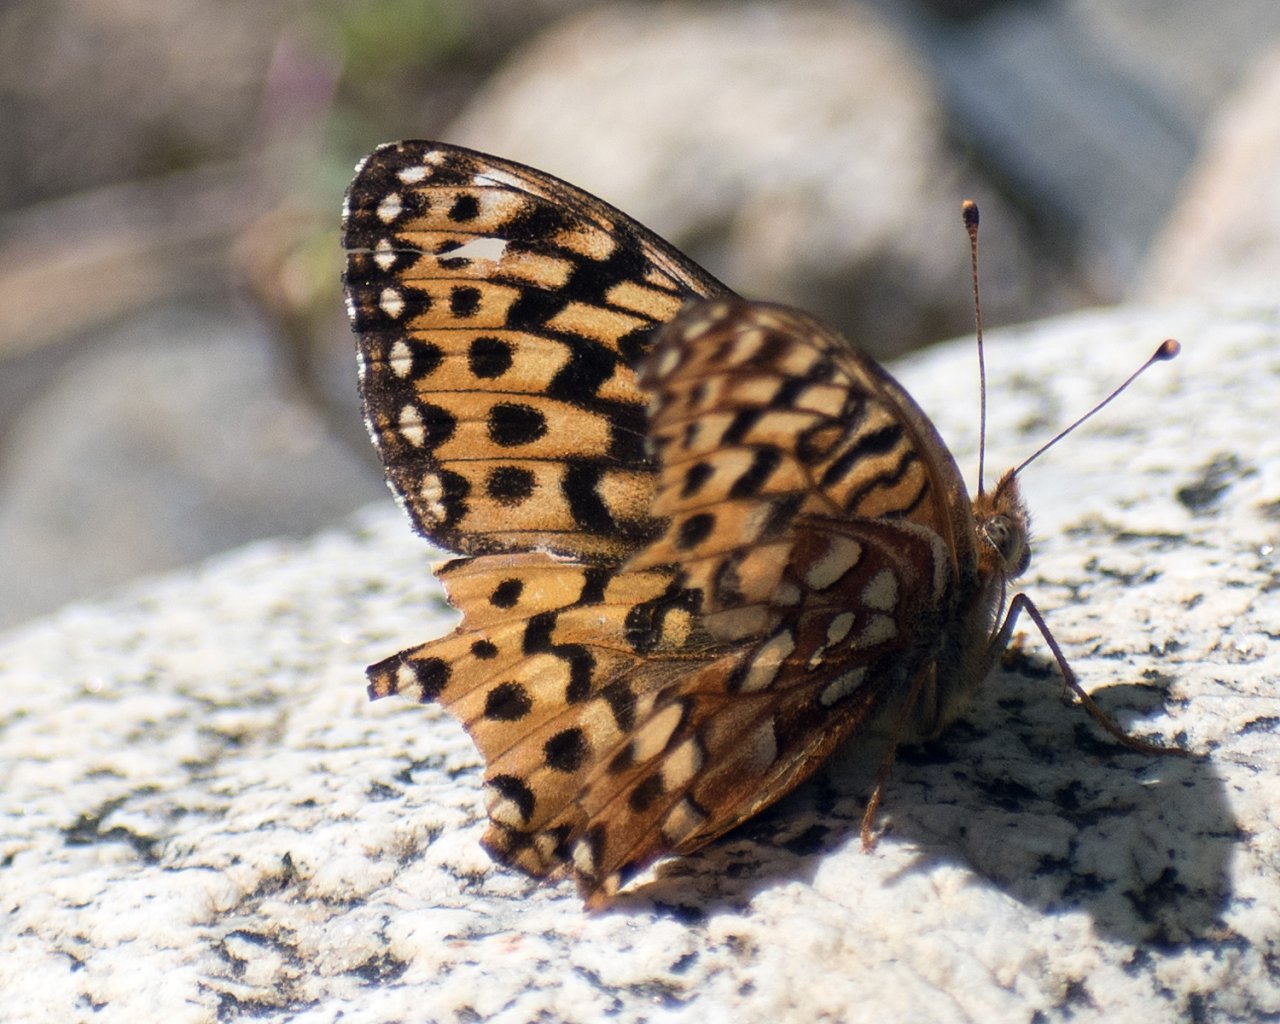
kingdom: Animalia
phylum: Arthropoda
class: Insecta
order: Lepidoptera
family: Nymphalidae
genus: Speyeria
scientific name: Speyeria hydaspe
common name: Hydaspe Fritillary
